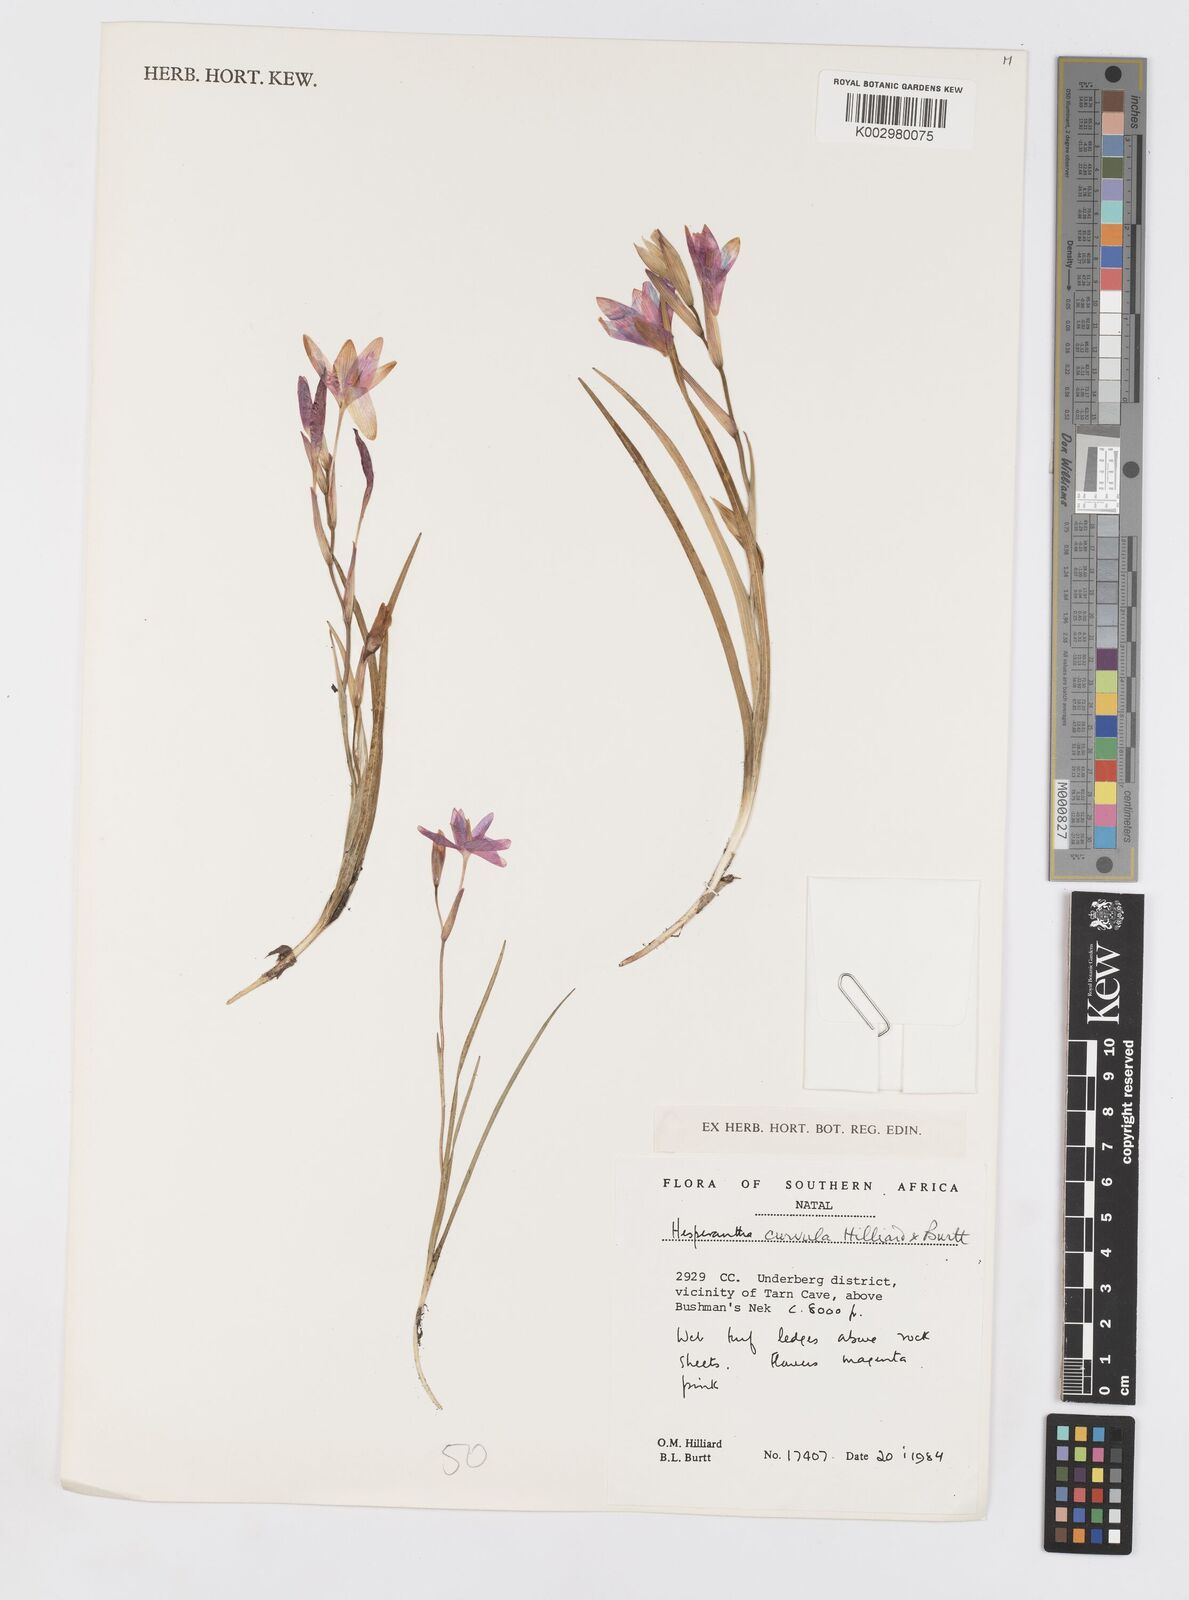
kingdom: Plantae
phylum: Tracheophyta
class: Liliopsida
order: Asparagales
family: Iridaceae
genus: Hesperantha
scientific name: Hesperantha curvula
